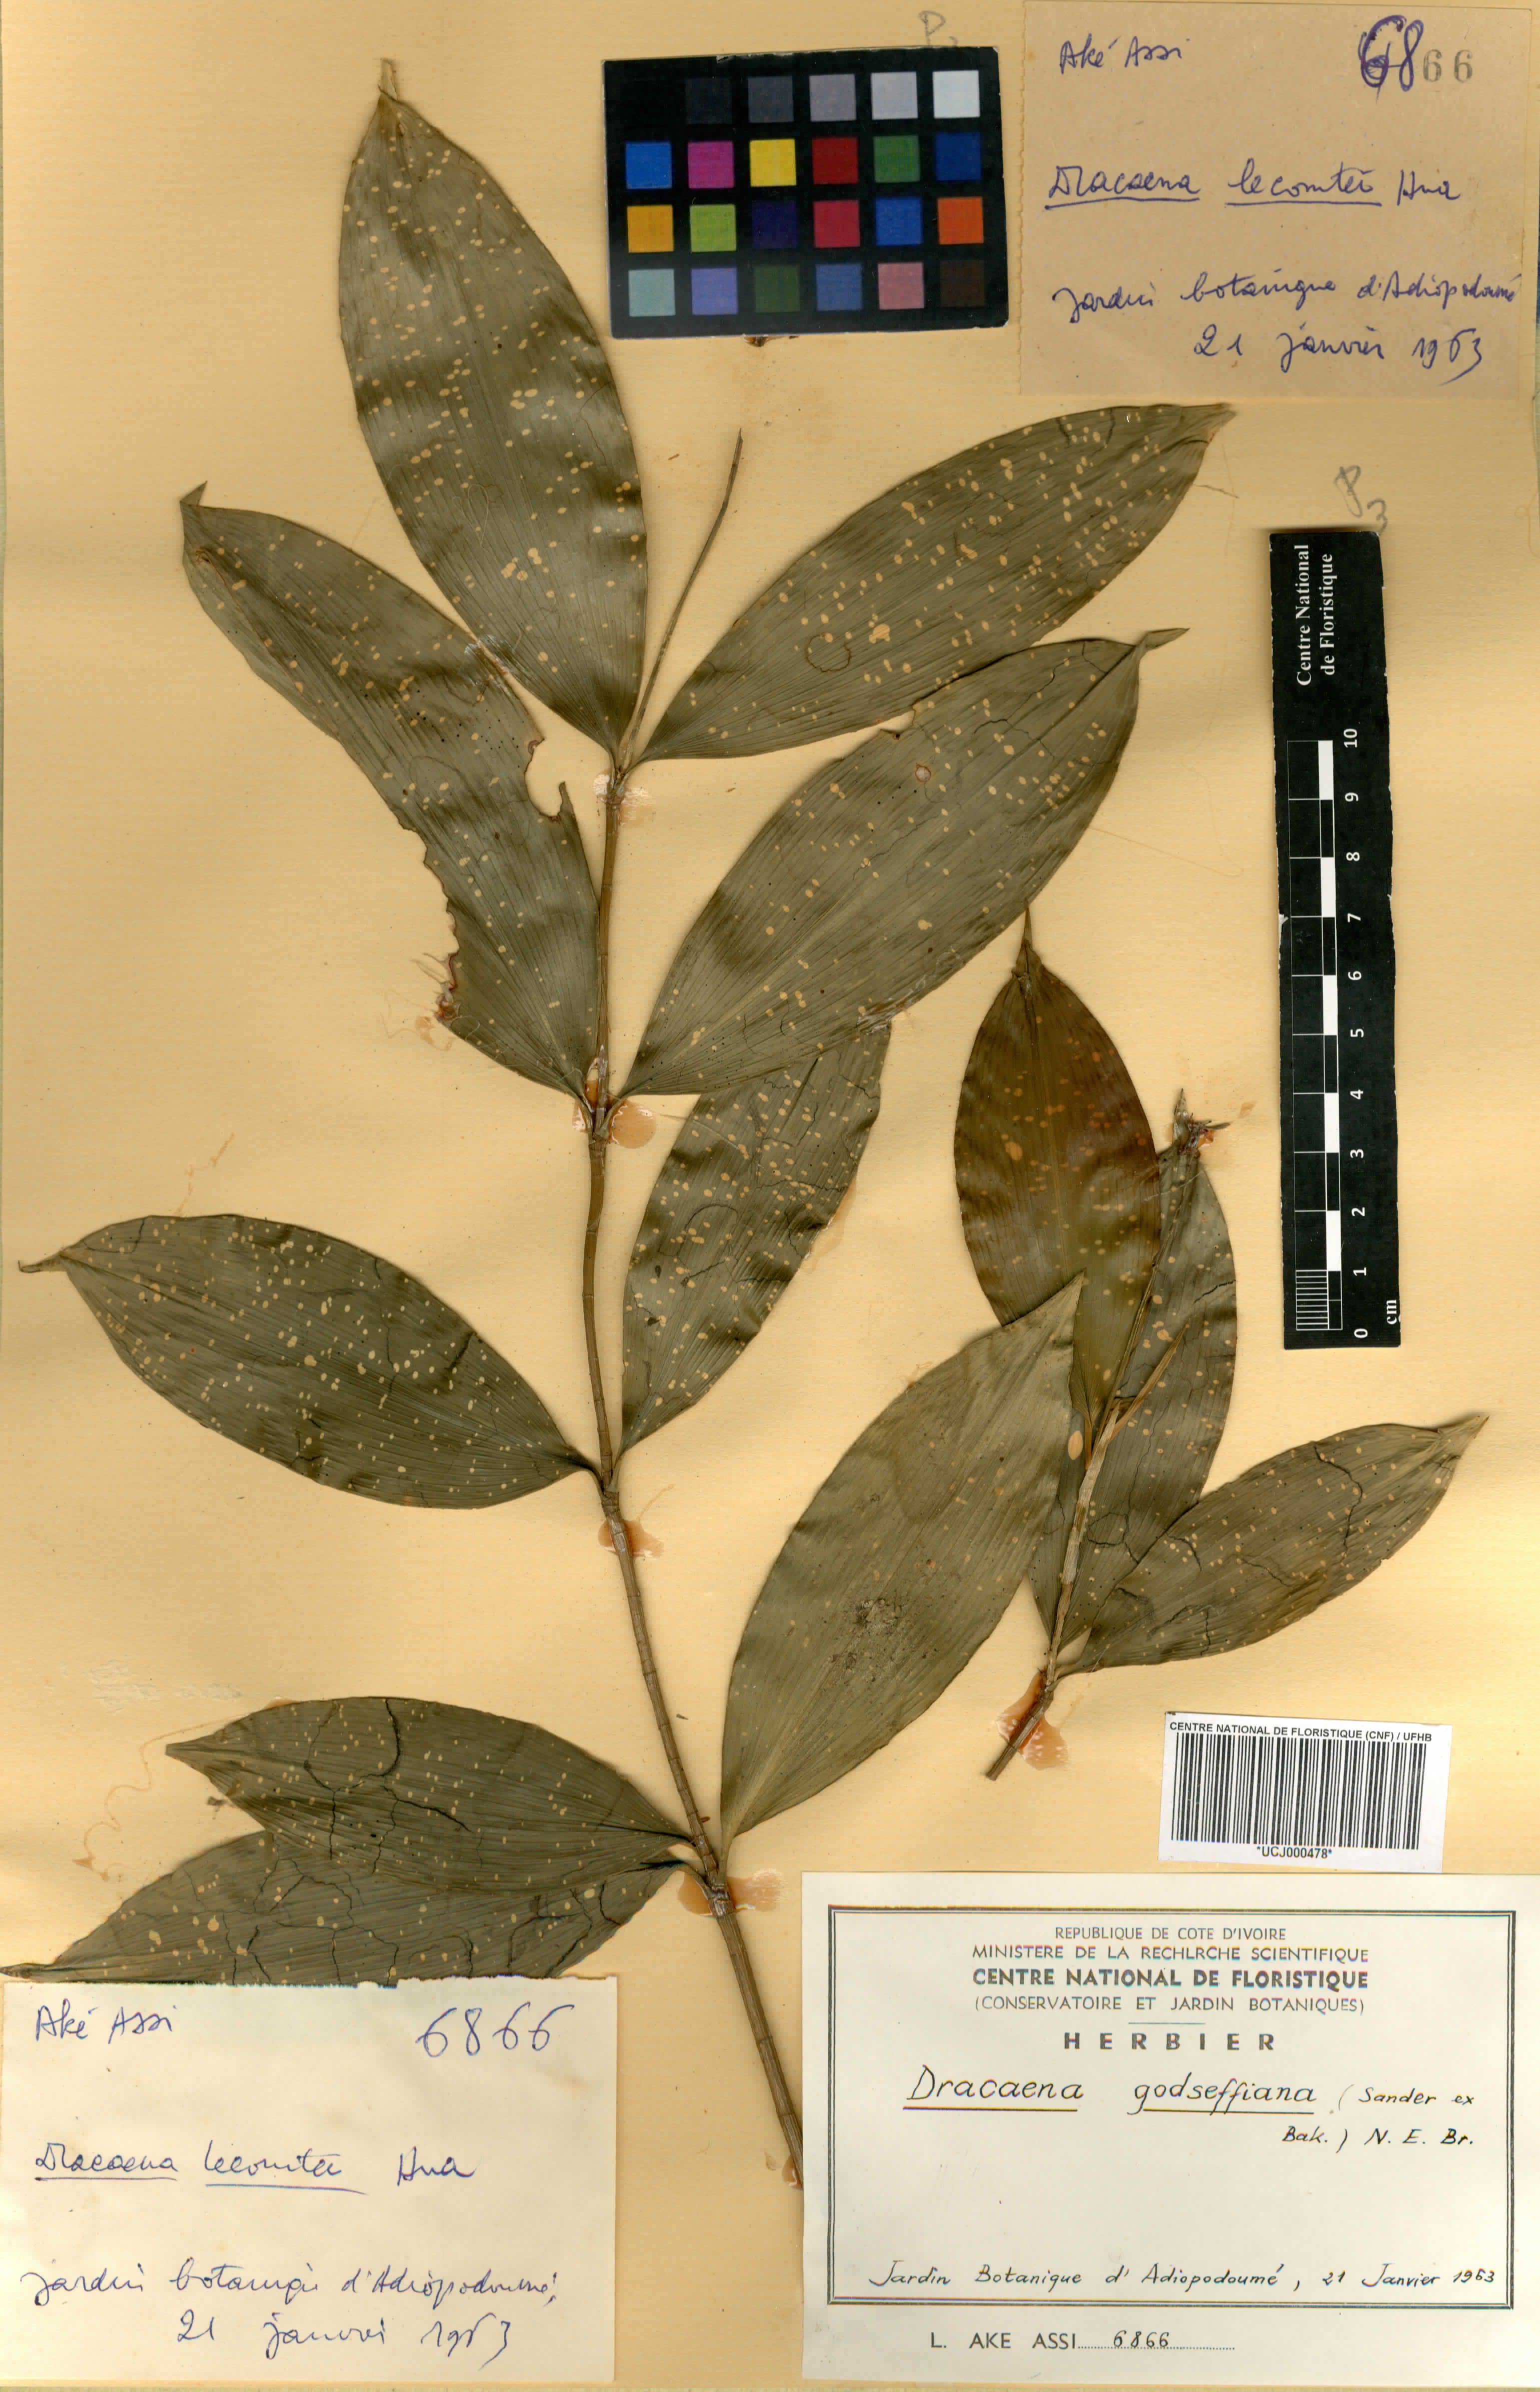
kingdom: Plantae
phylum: Tracheophyta
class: Liliopsida
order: Asparagales
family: Asparagaceae
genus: Dracaena
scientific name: Dracaena surculosa
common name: Spotted dracaena
